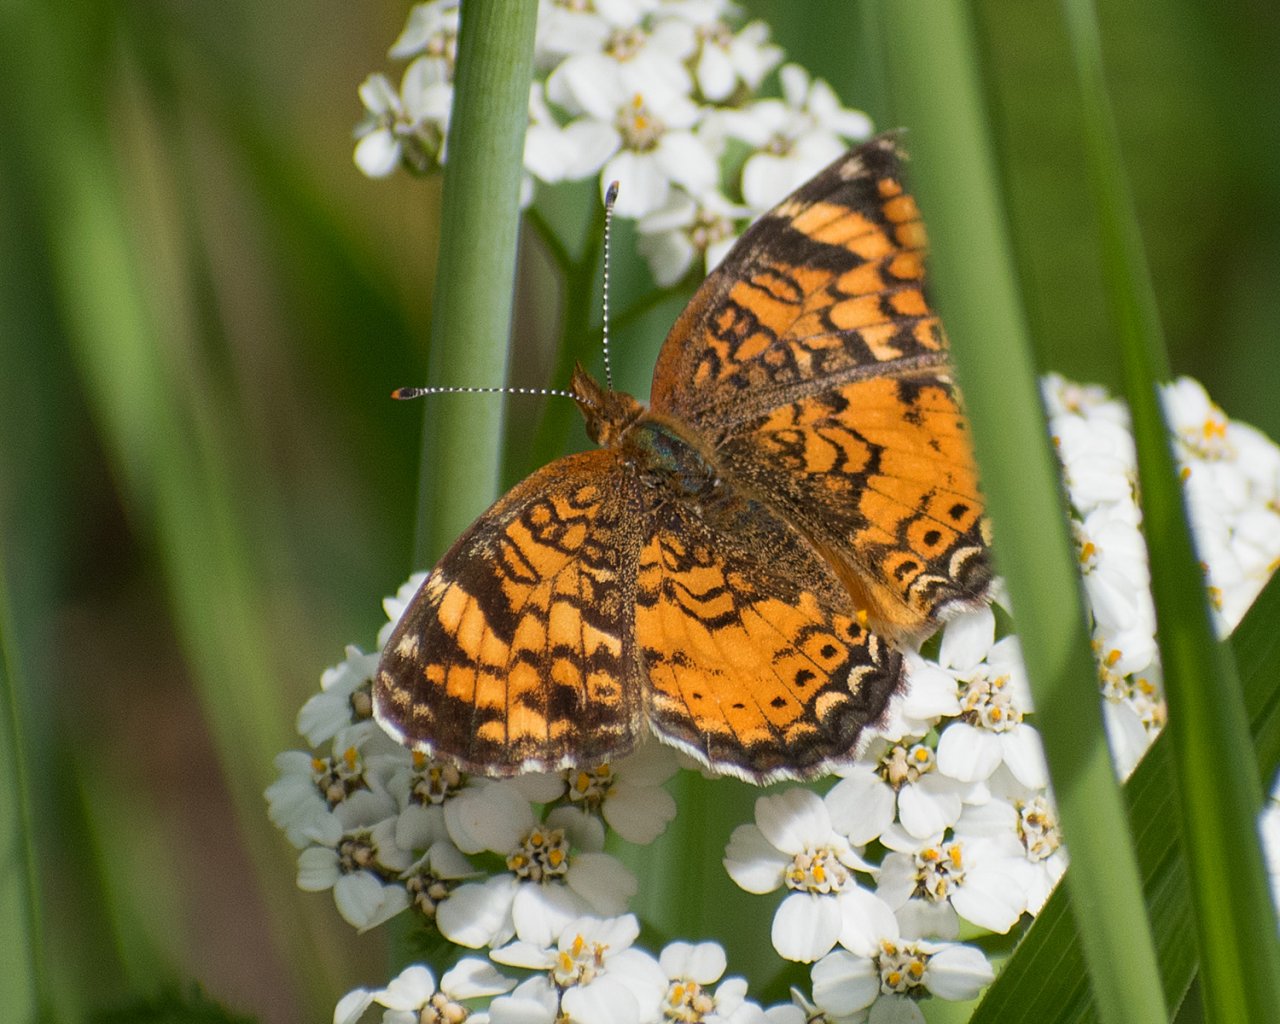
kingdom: Animalia
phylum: Arthropoda
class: Insecta
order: Lepidoptera
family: Nymphalidae
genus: Phyciodes
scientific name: Phyciodes tharos
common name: Northern Crescent
